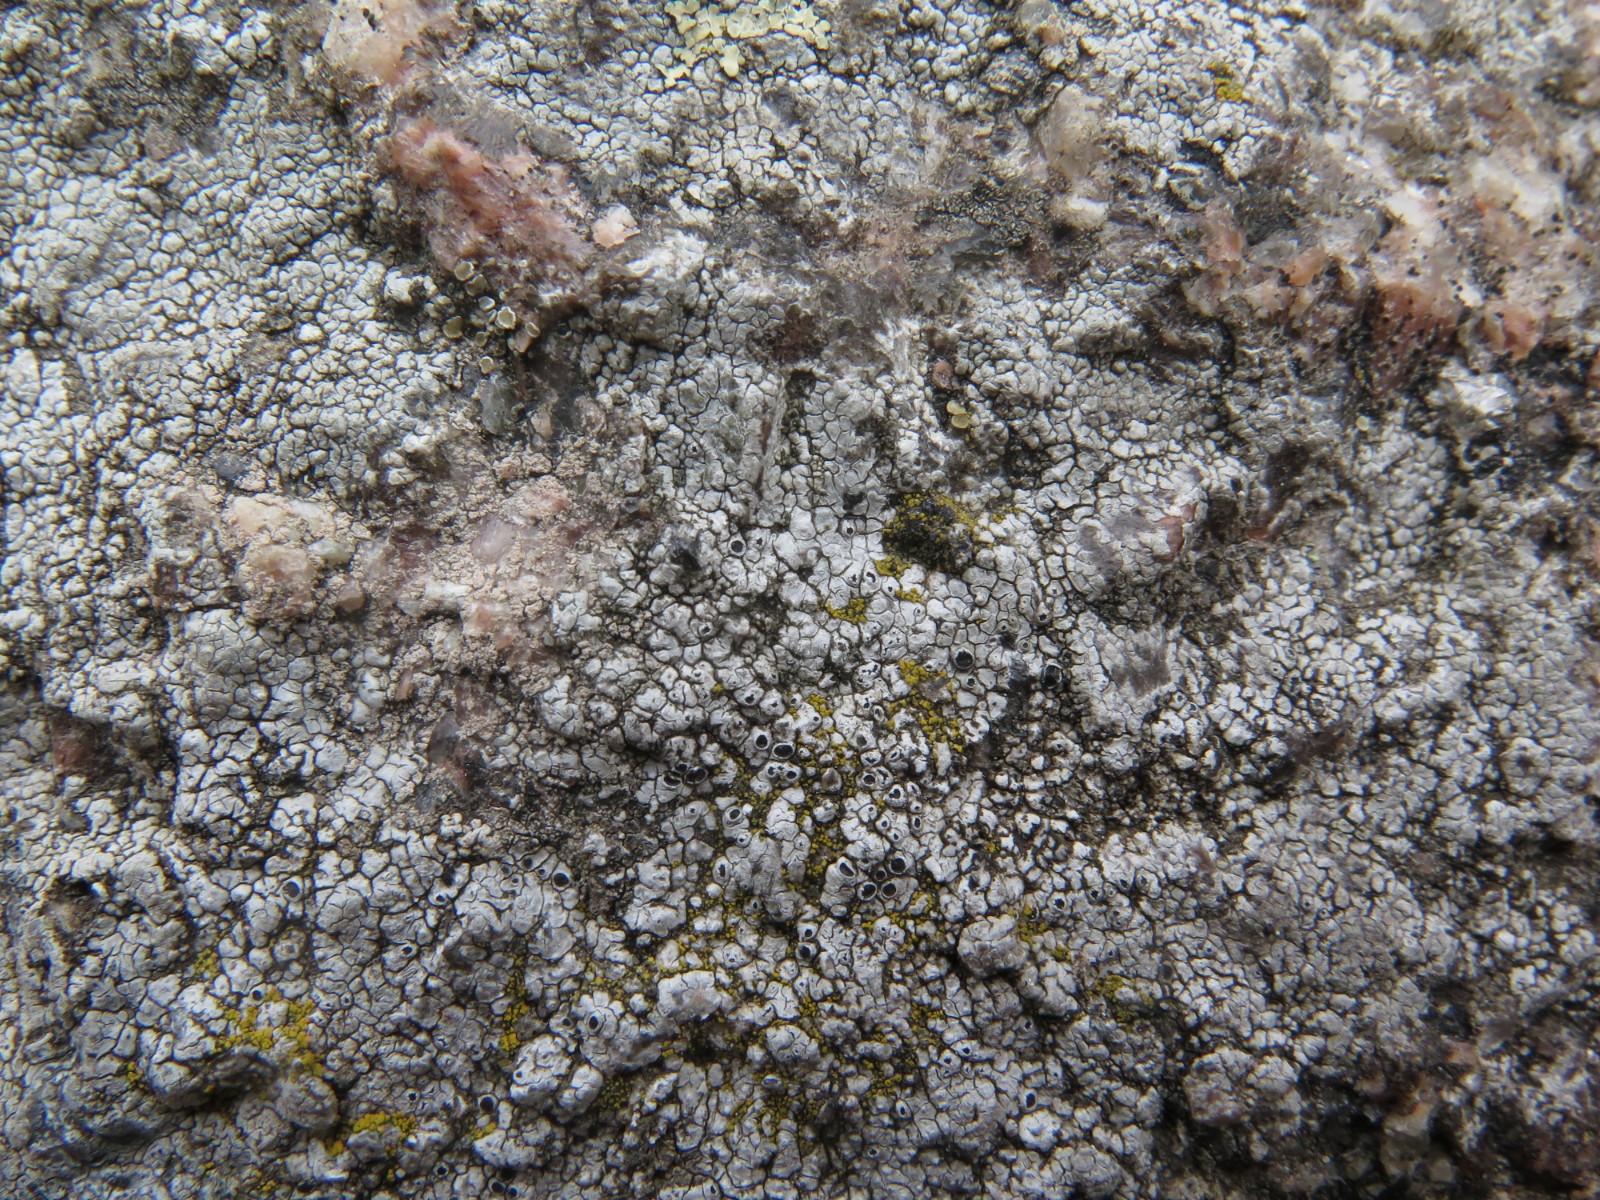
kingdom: Fungi
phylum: Ascomycota
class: Lecanoromycetes
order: Pertusariales
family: Megasporaceae
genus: Aspicilia
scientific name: Aspicilia cinerea
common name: grå hulskivelav
